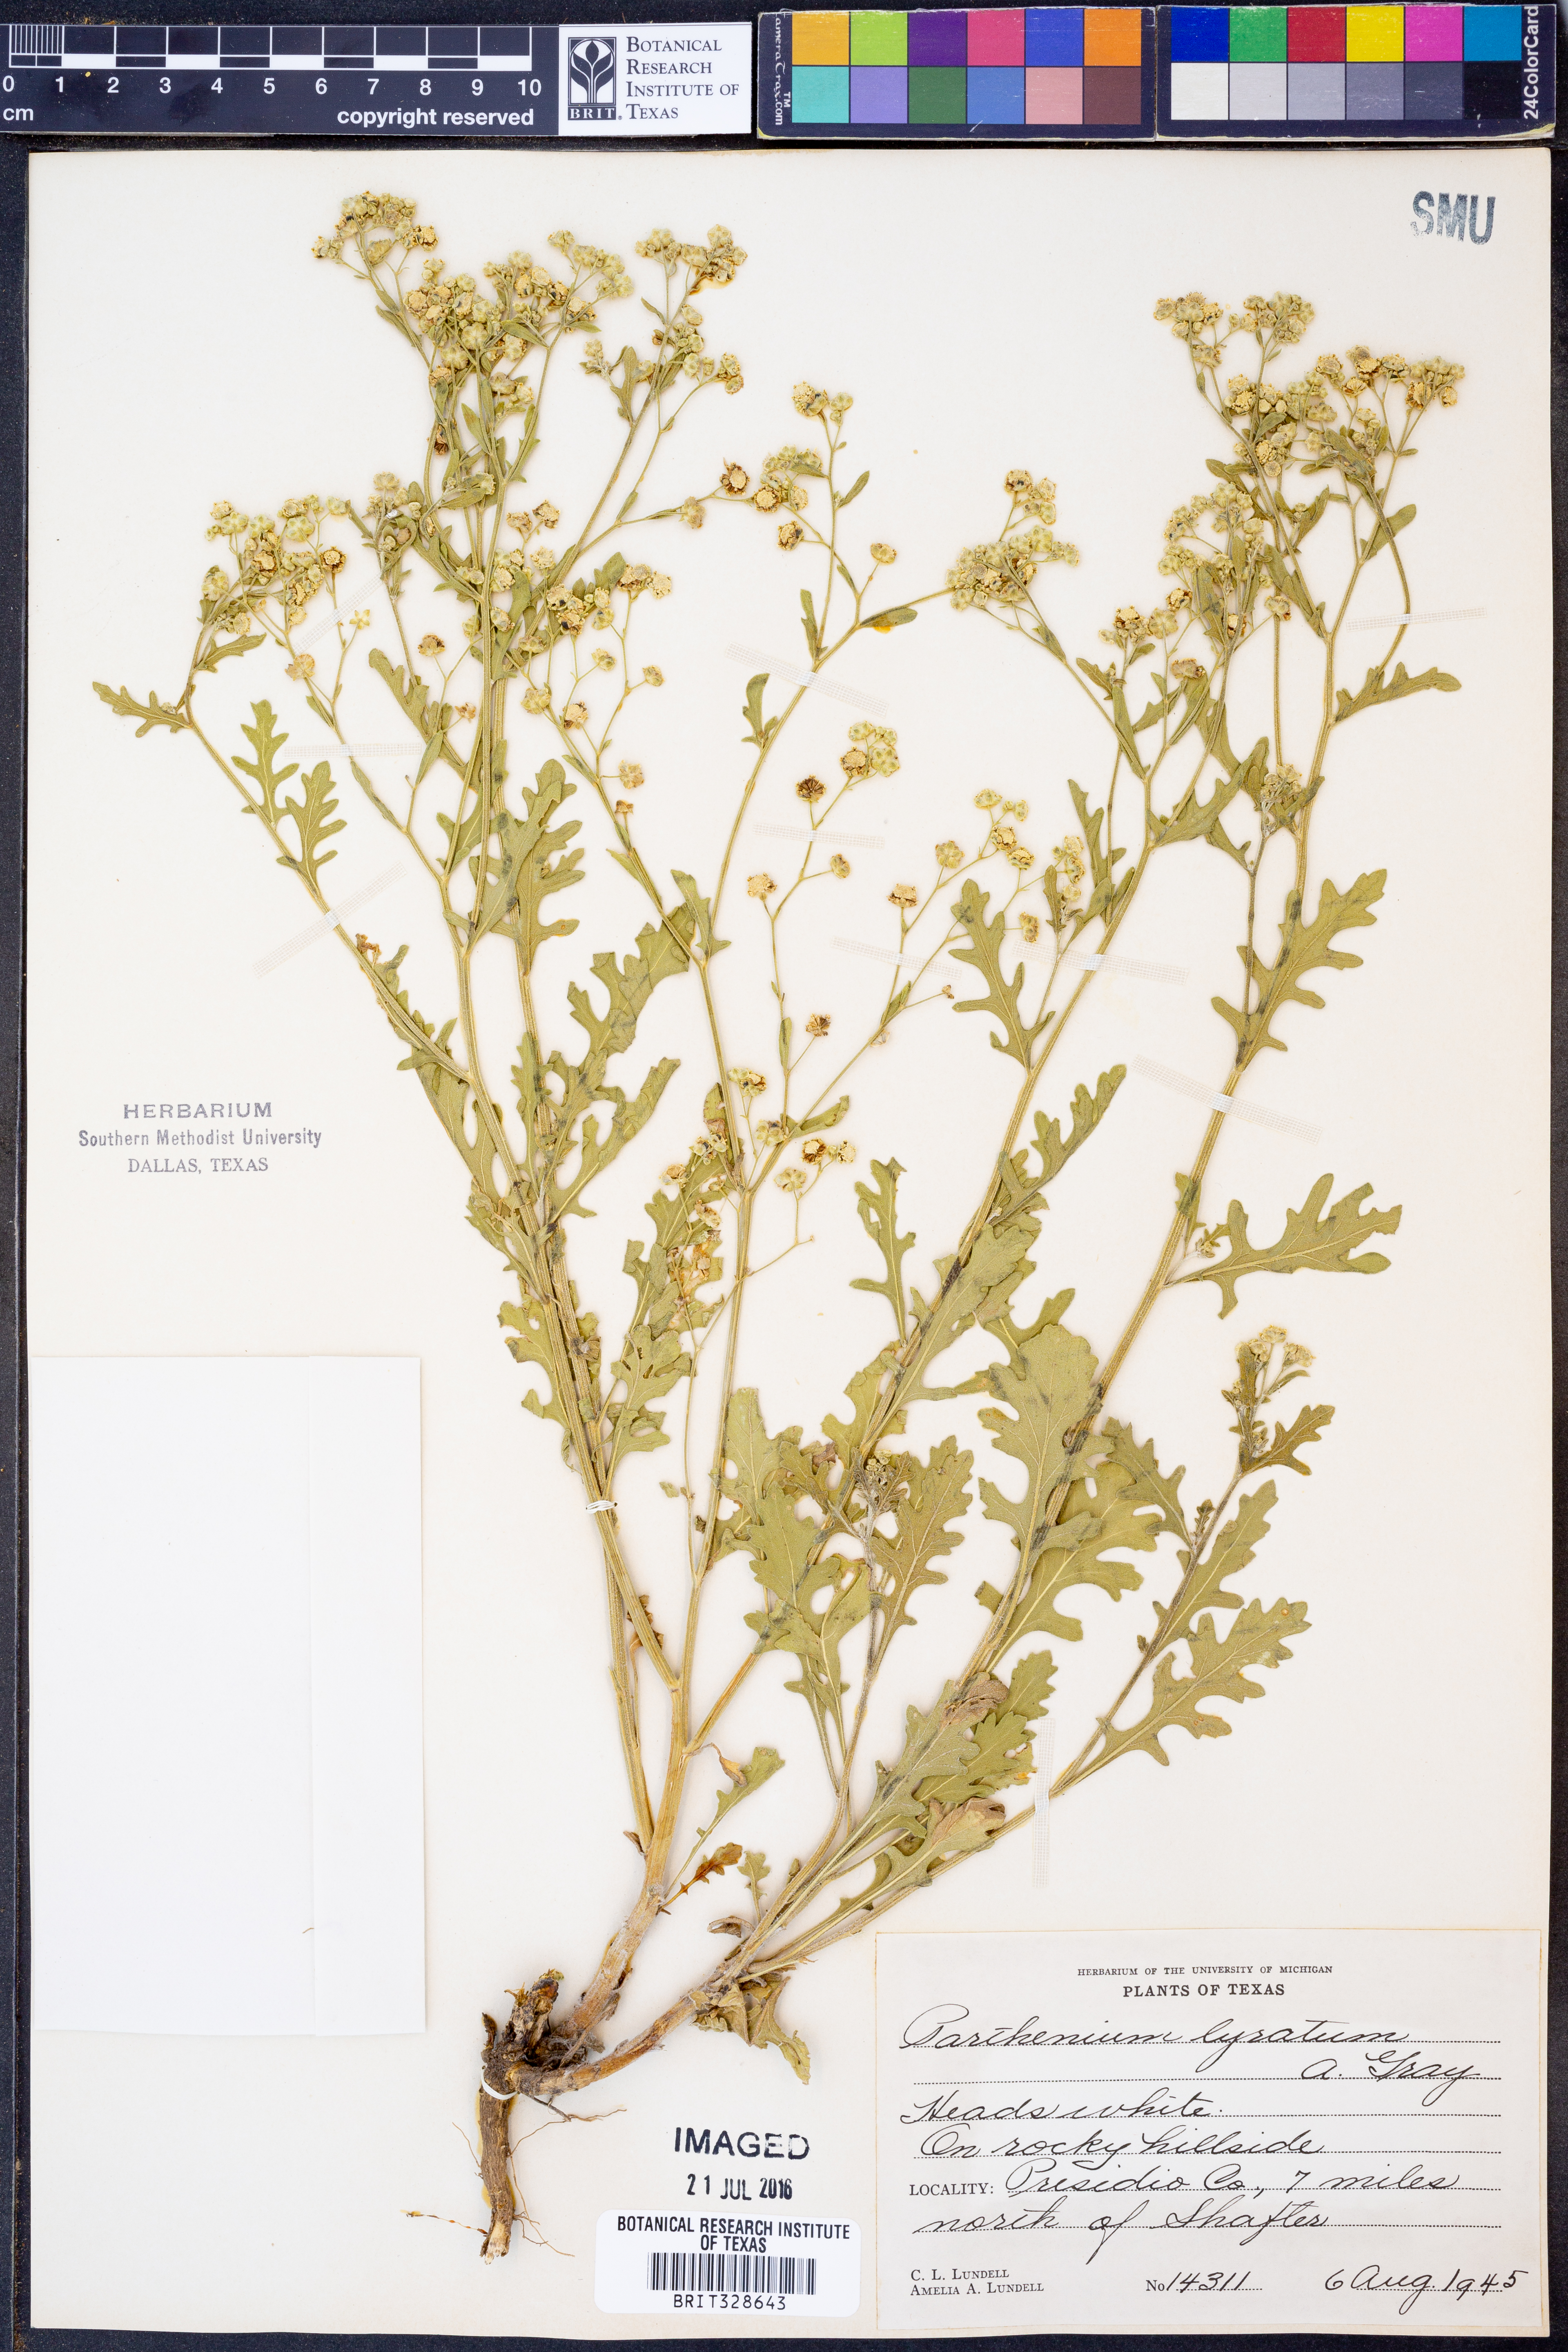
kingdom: Plantae
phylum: Tracheophyta
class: Magnoliopsida
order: Asterales
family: Asteraceae
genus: Parthenium
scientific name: Parthenium confertum
